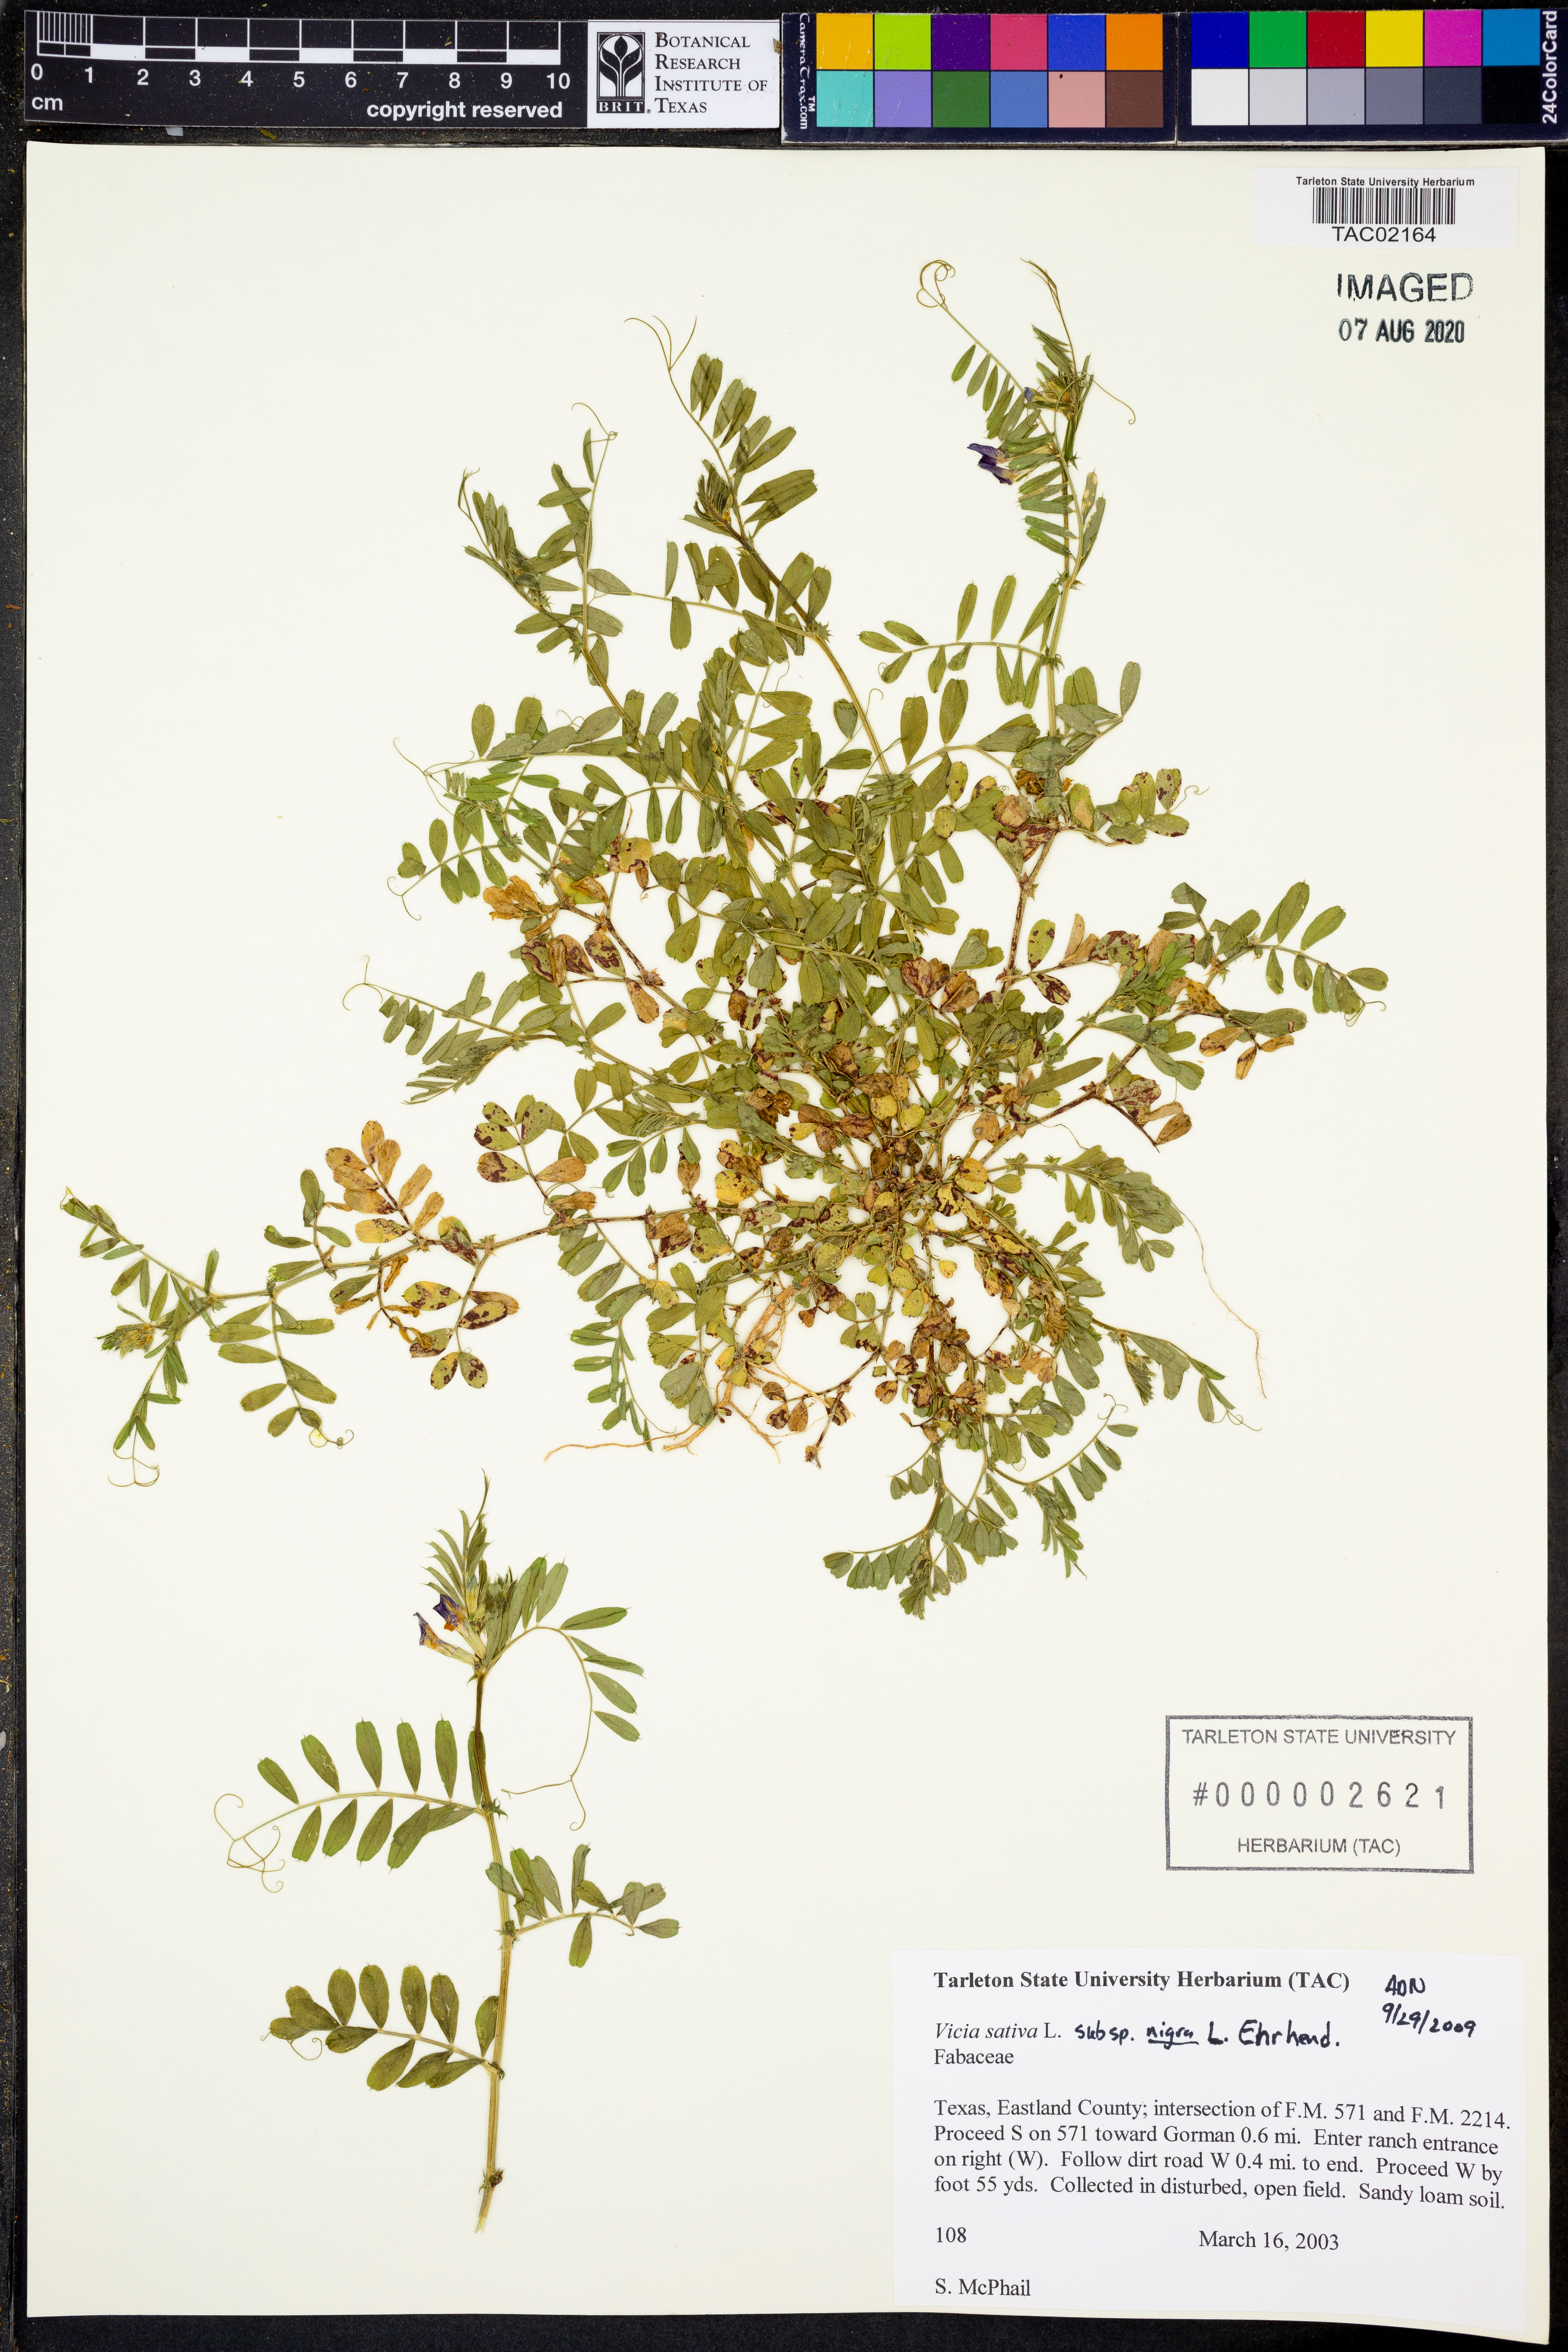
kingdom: Plantae
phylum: Tracheophyta
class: Magnoliopsida
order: Fabales
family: Fabaceae
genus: Vicia
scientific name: Vicia sativa
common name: Garden vetch
